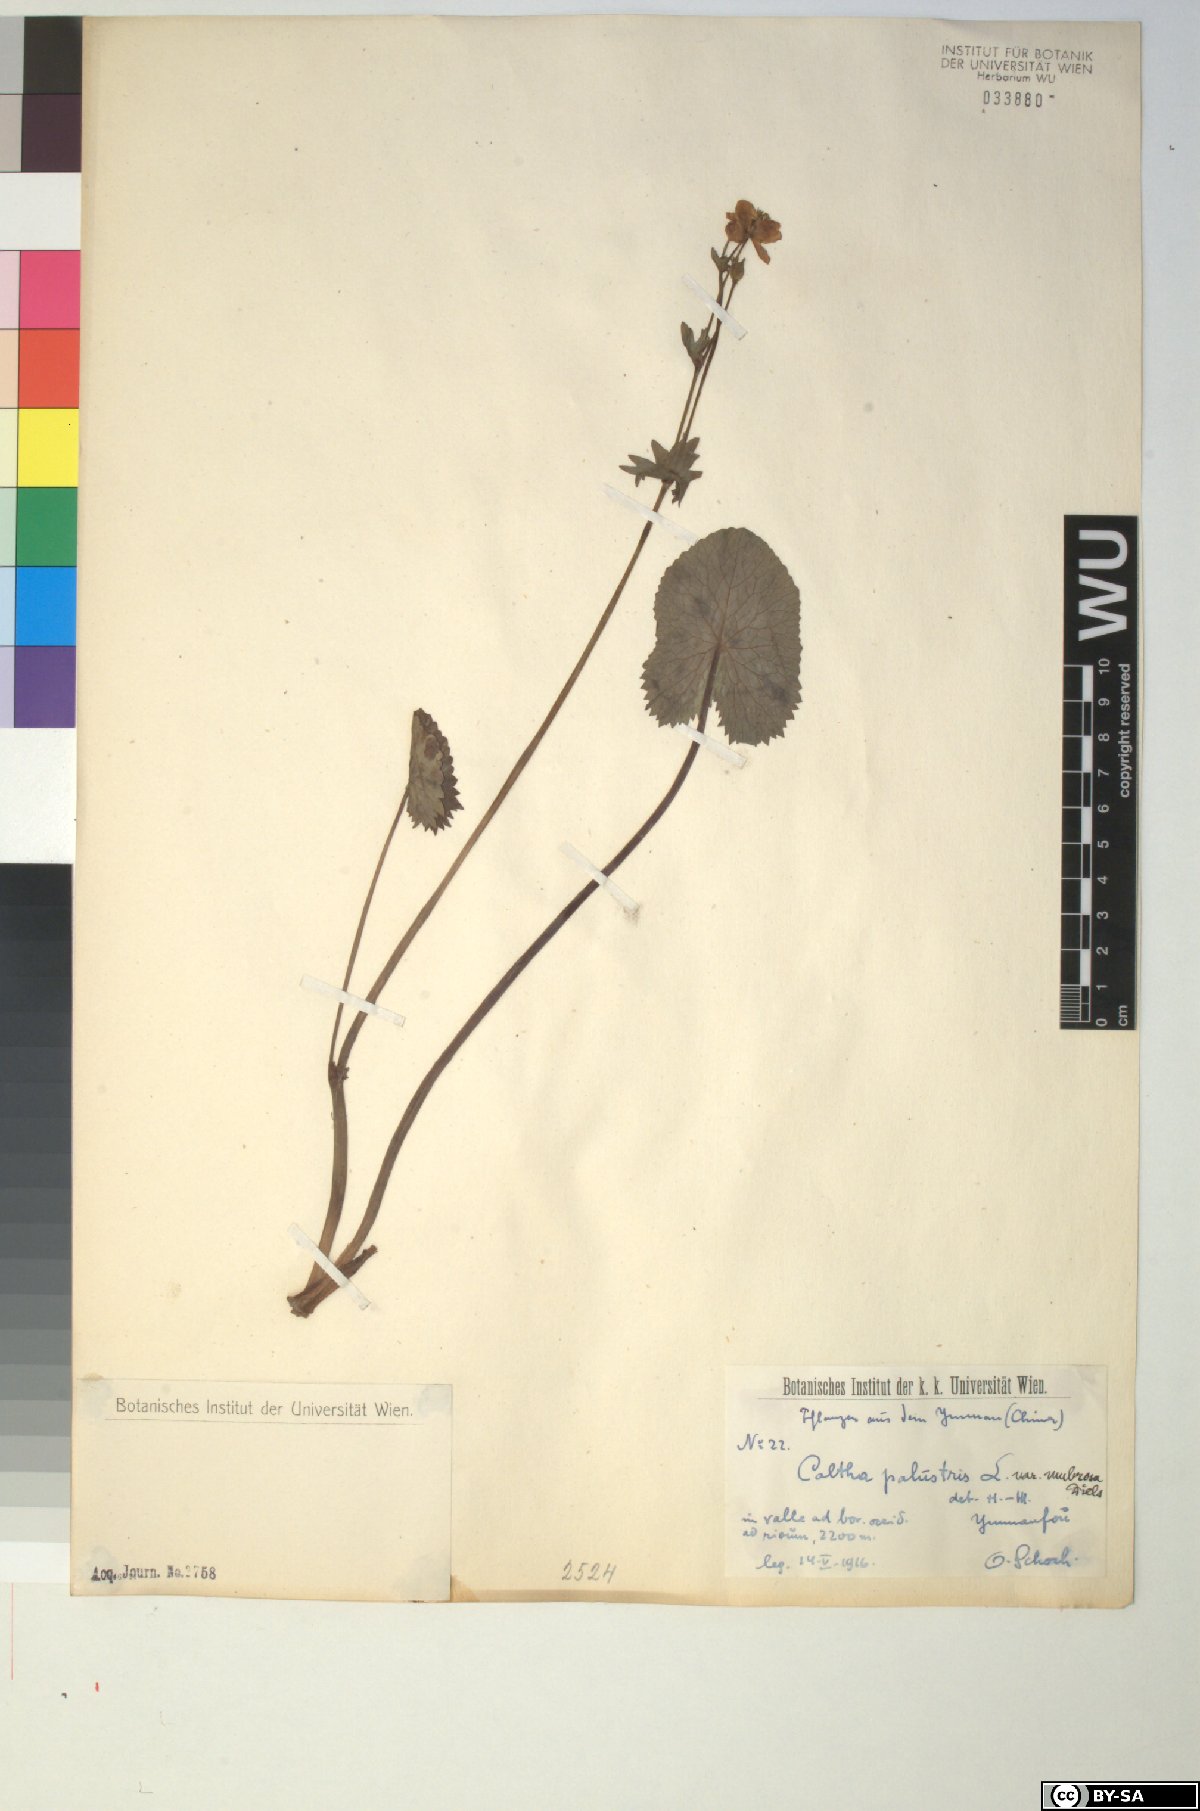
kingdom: Plantae
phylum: Tracheophyta
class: Magnoliopsida
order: Ranunculales
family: Ranunculaceae
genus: Caltha
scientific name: Caltha palustris
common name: Marsh marigold
